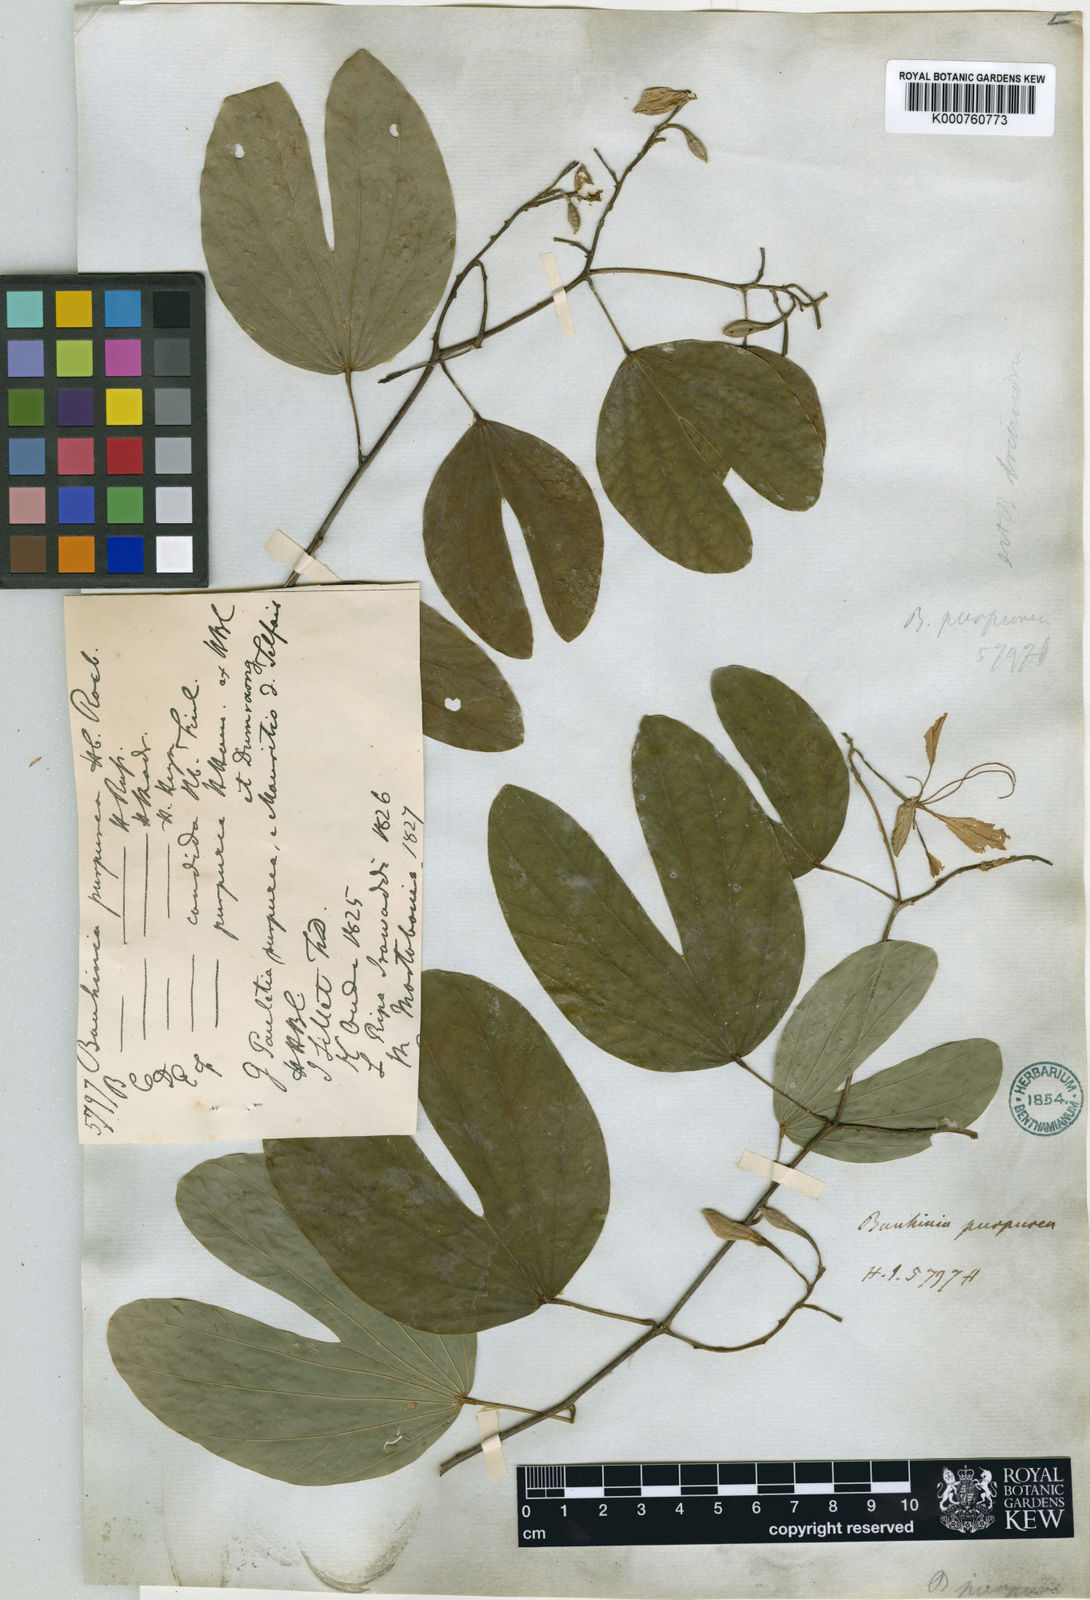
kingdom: Plantae
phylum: Tracheophyta
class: Magnoliopsida
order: Fabales
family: Fabaceae
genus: Bauhinia
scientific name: Bauhinia purpurea
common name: Butterfly-tree
